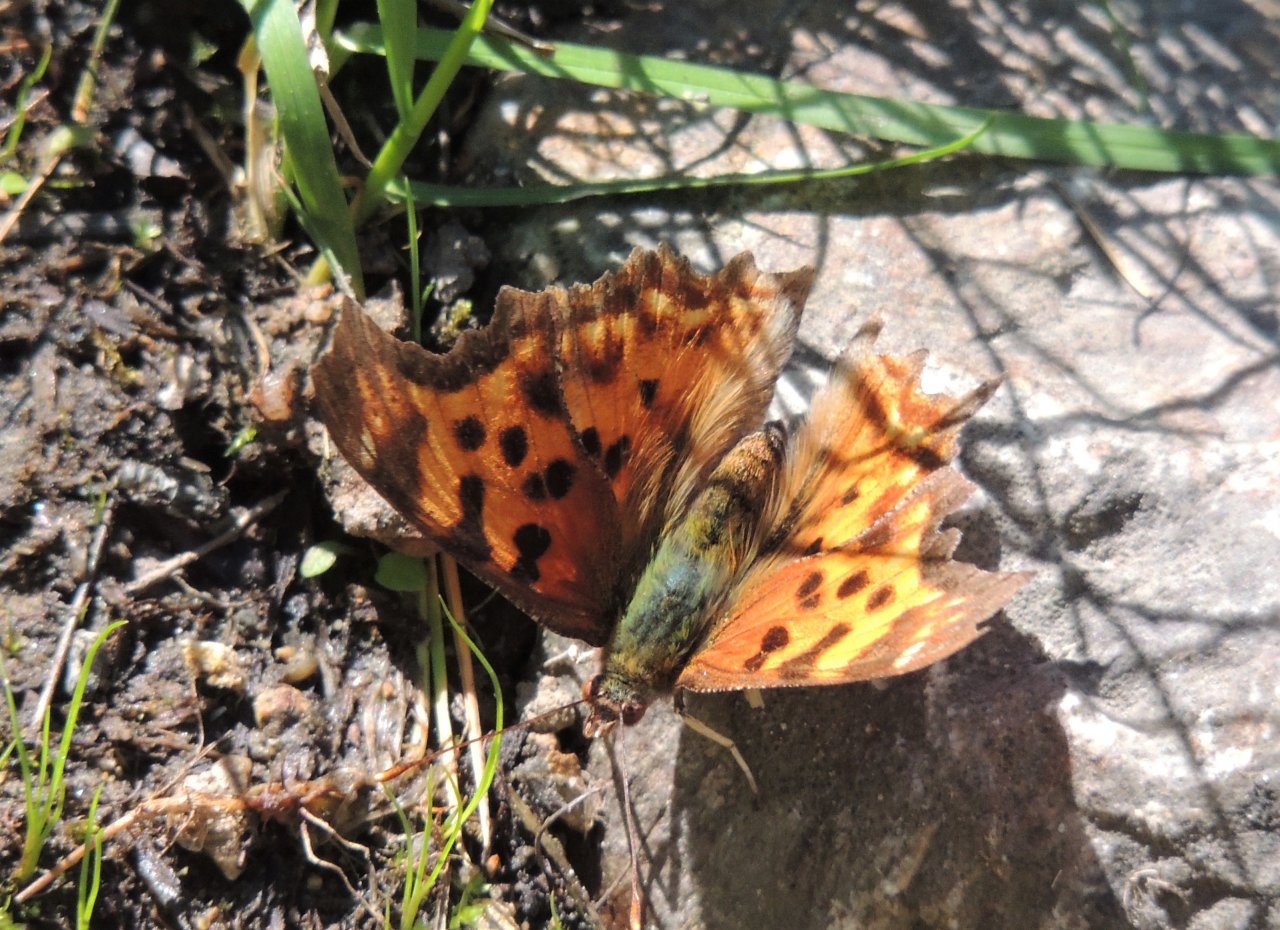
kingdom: Animalia
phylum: Arthropoda
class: Insecta
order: Lepidoptera
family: Nymphalidae
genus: Polygonia
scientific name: Polygonia satyrus
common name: Satyr Comma
